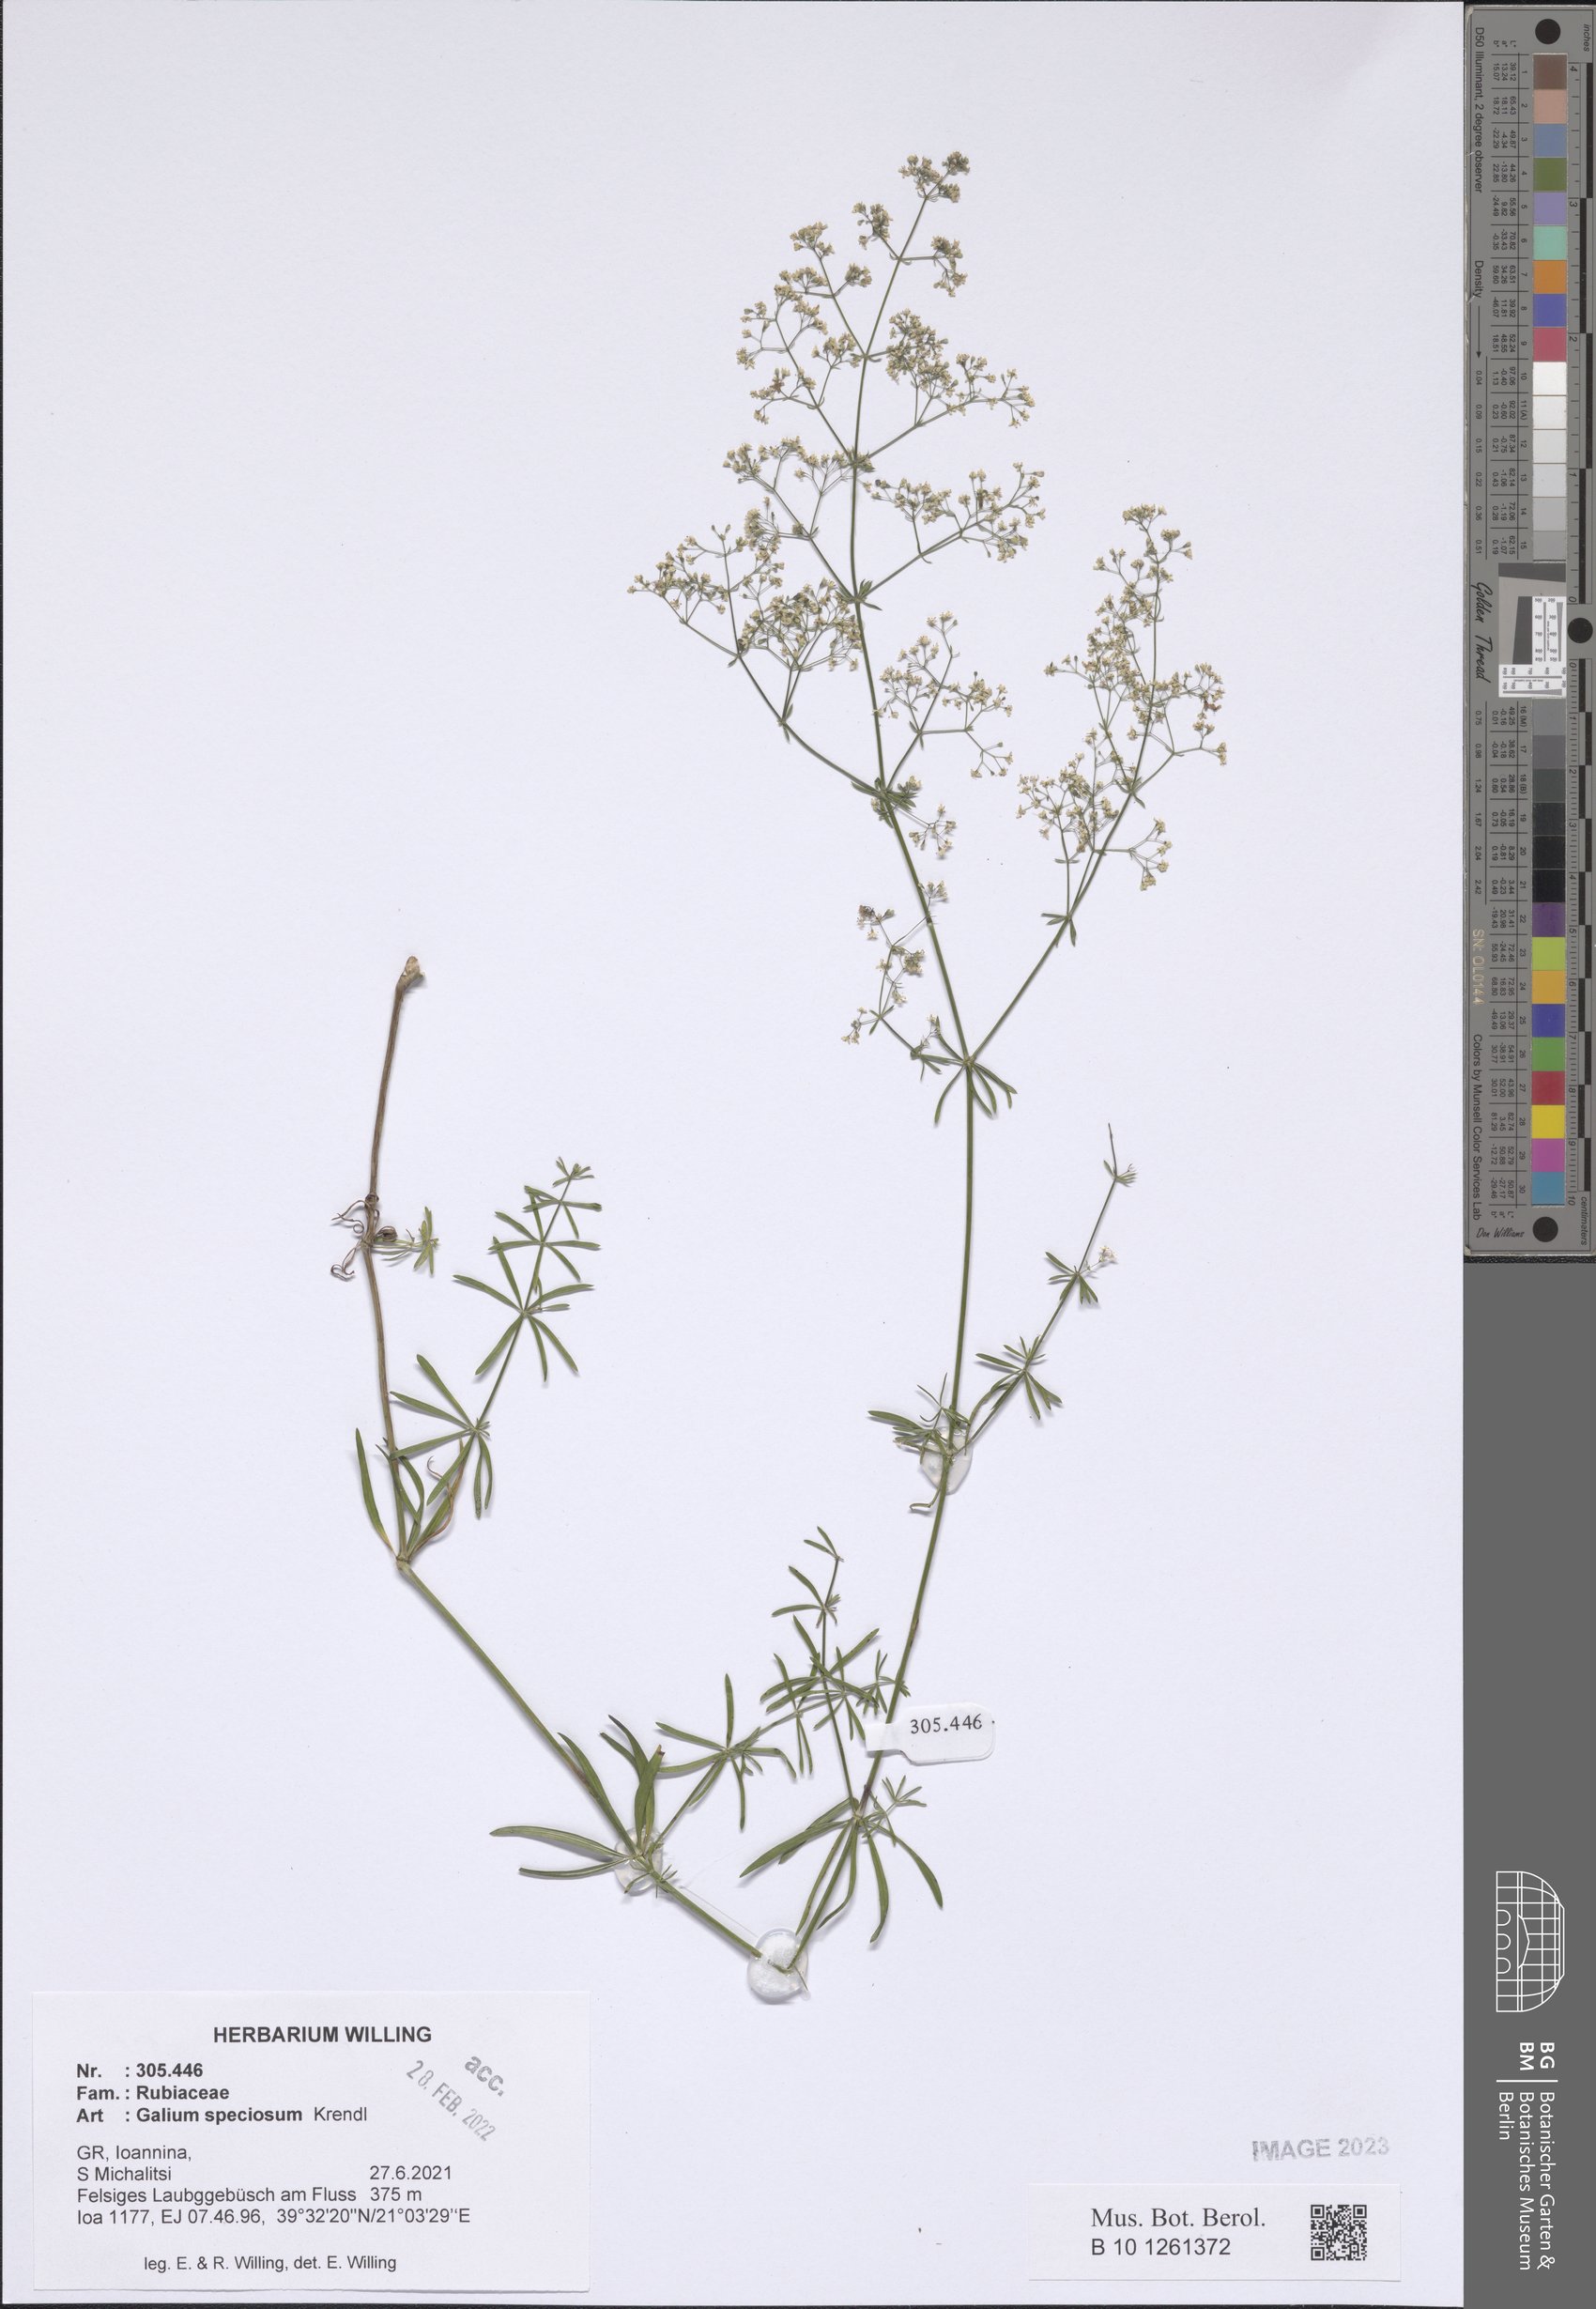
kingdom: Plantae
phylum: Tracheophyta
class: Magnoliopsida
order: Gentianales
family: Rubiaceae
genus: Galium
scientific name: Galium speciosum
